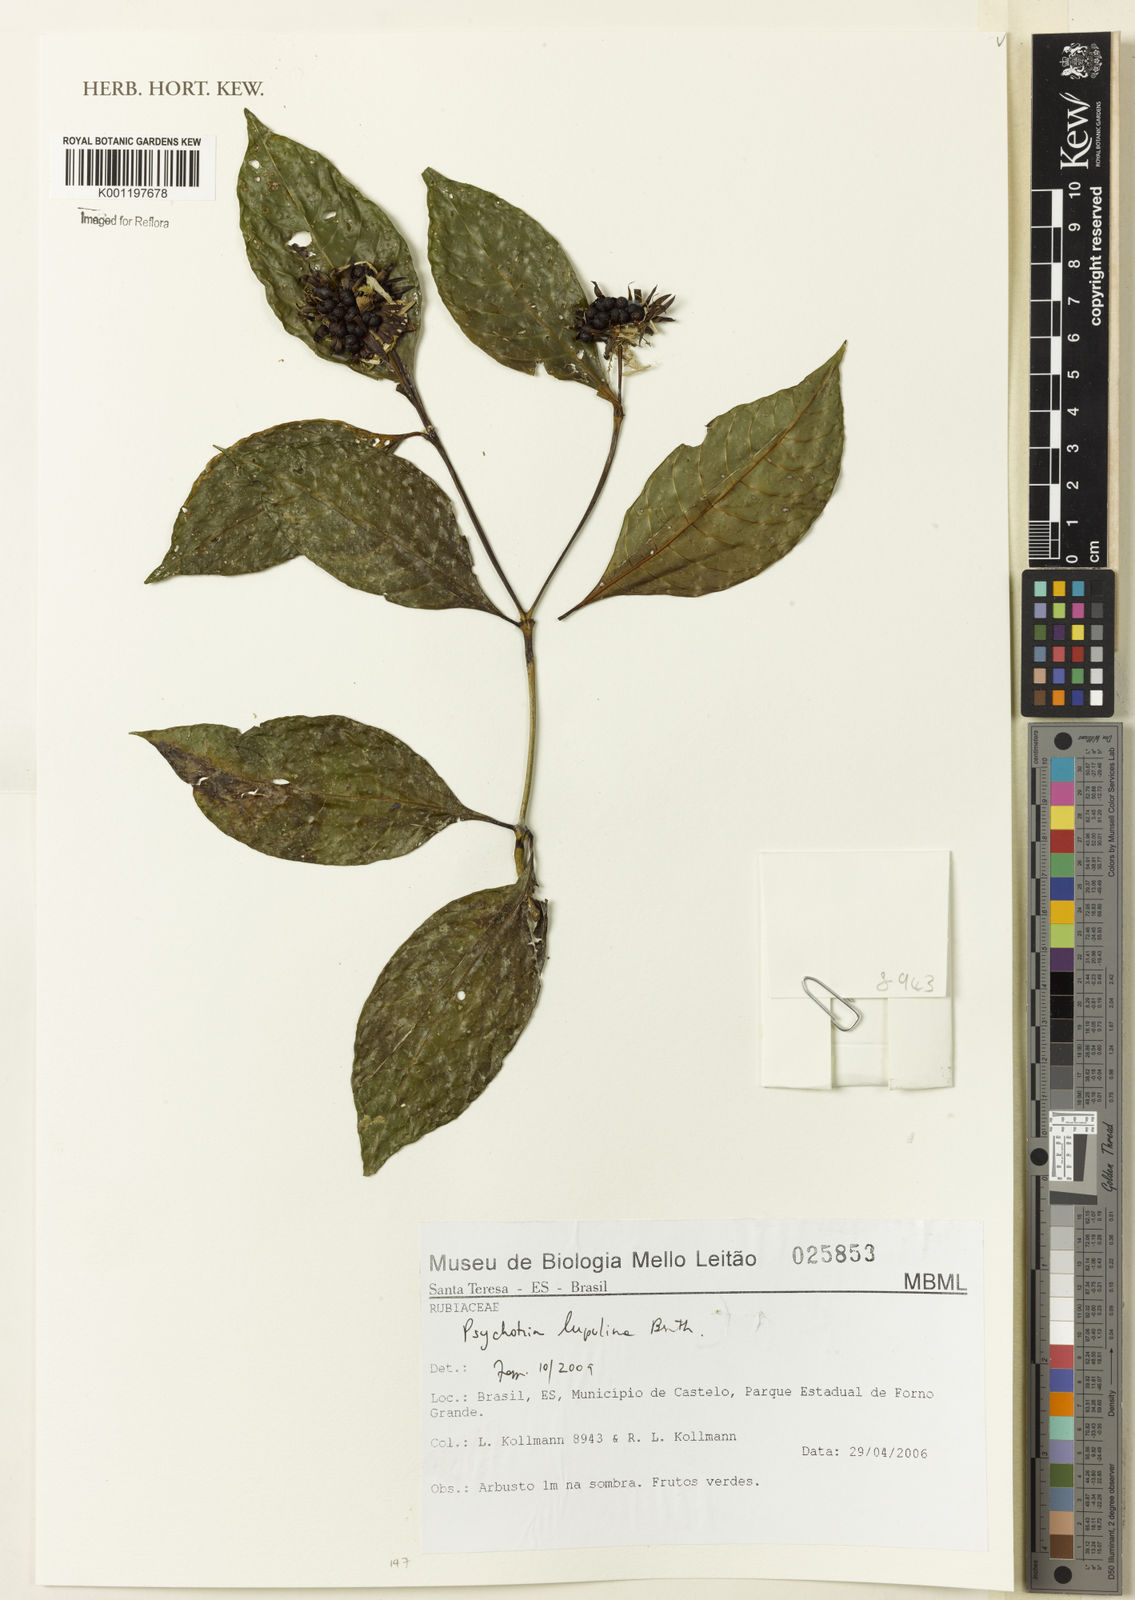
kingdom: Plantae
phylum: Tracheophyta
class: Magnoliopsida
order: Gentianales
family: Rubiaceae
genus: Palicourea
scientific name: Palicourea justiciifolia
